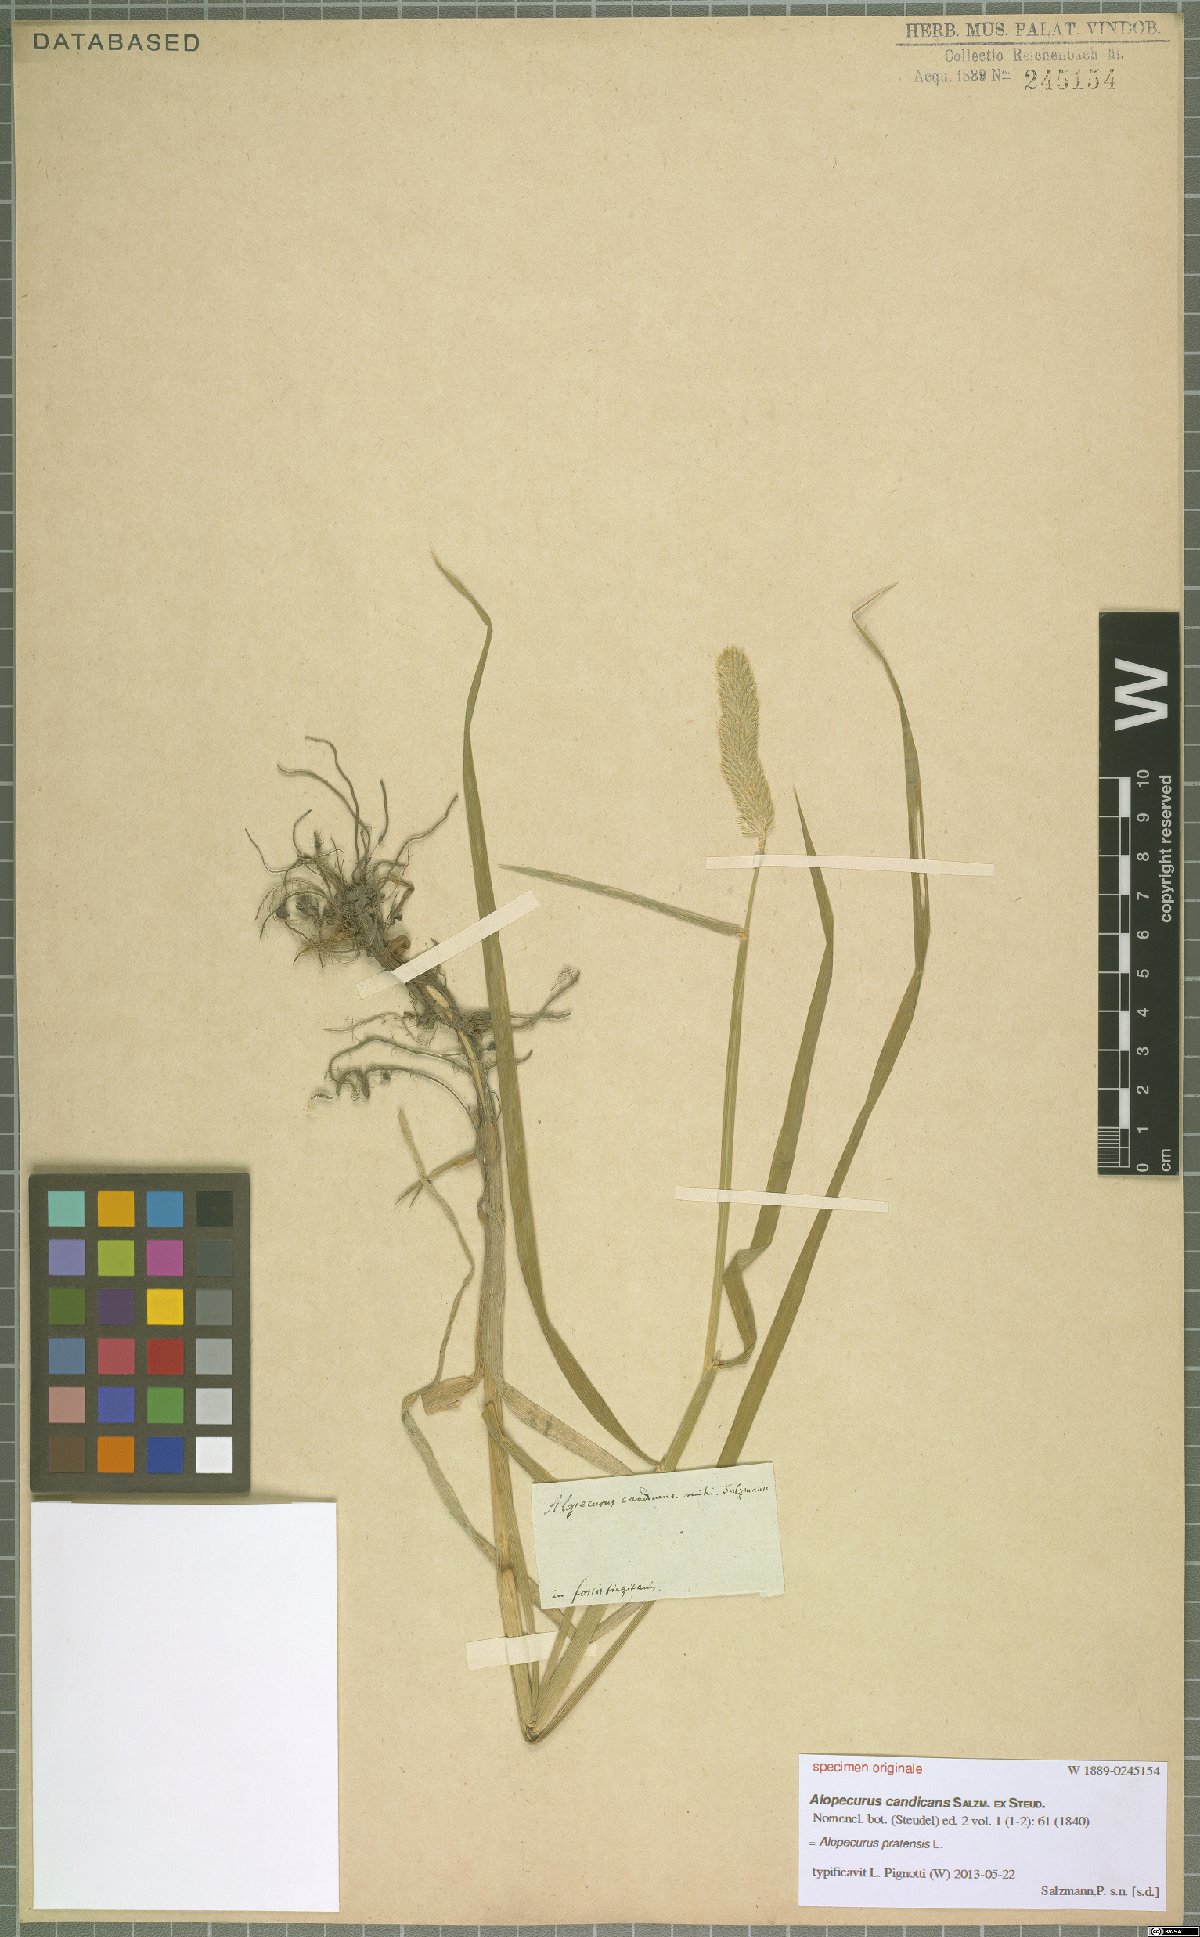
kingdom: Plantae
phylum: Tracheophyta
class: Liliopsida
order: Poales
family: Poaceae
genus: Alopecurus
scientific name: Alopecurus pratensis
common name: Meadow foxtail
